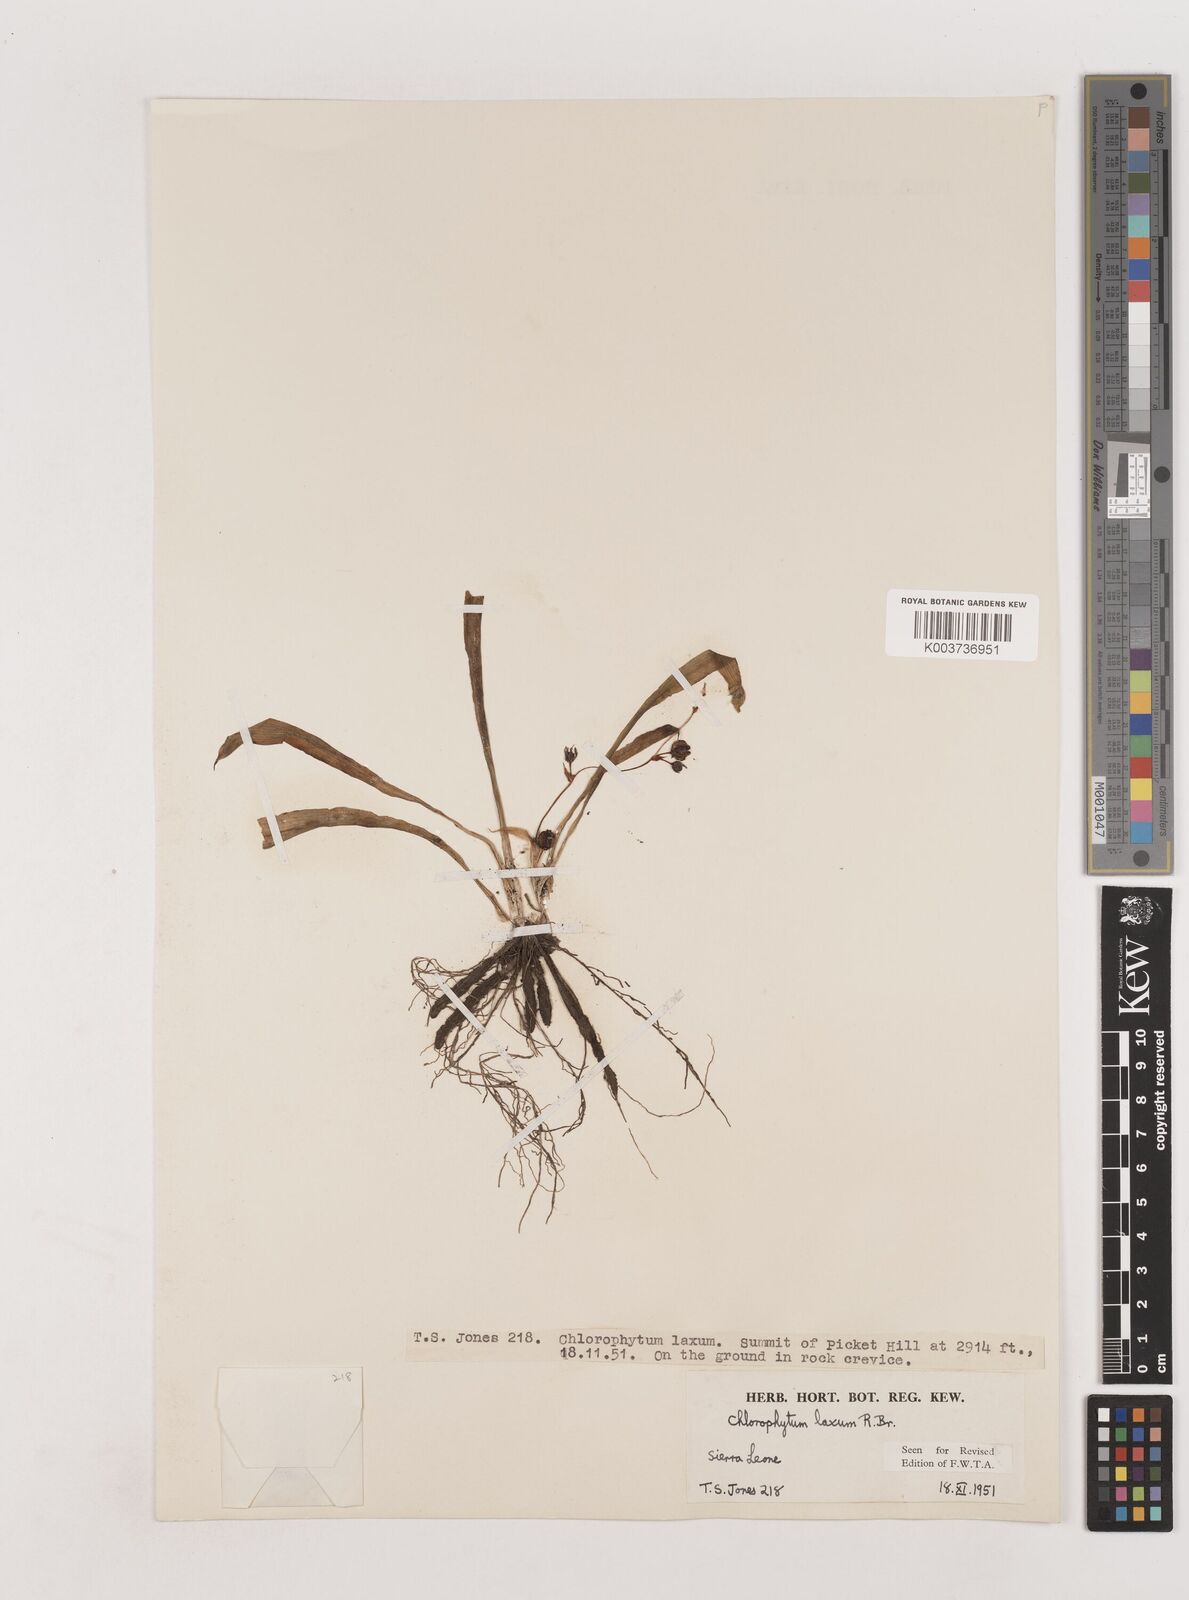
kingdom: Plantae
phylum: Tracheophyta
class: Liliopsida
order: Asparagales
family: Asparagaceae
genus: Chlorophytum
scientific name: Chlorophytum laxum
